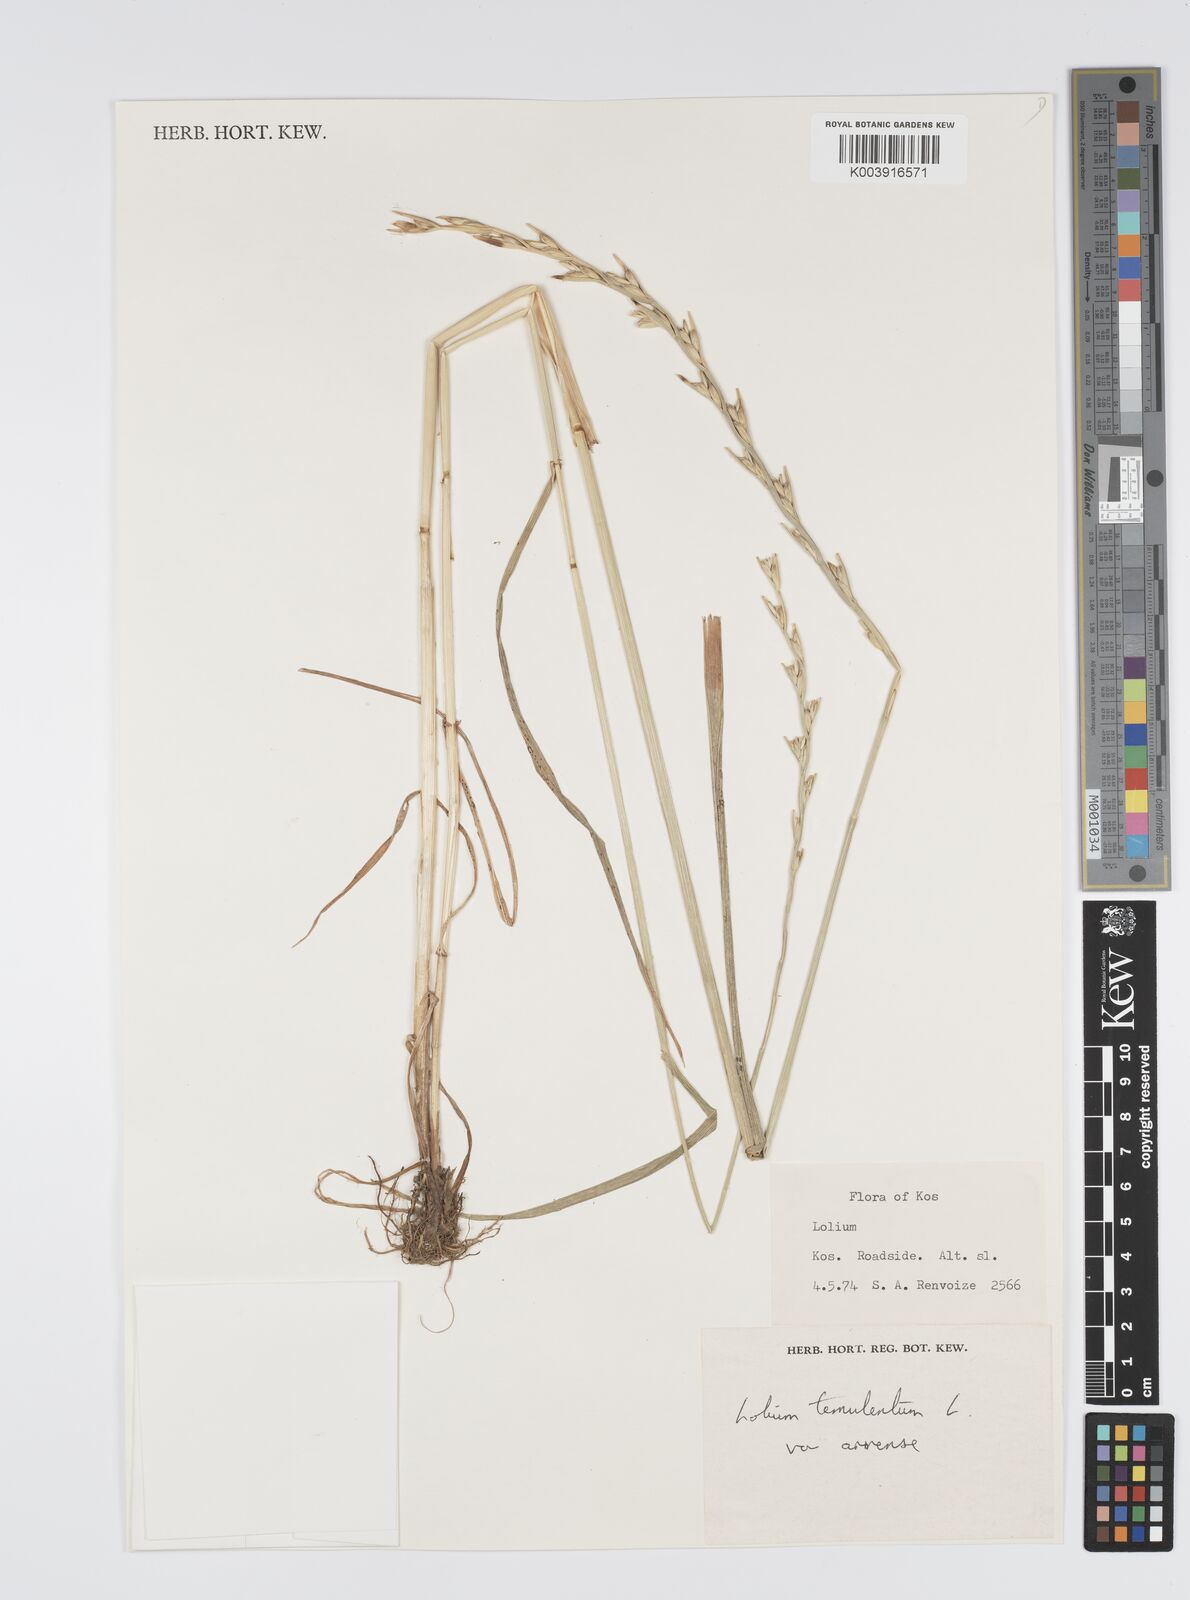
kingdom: Plantae
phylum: Tracheophyta
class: Liliopsida
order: Poales
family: Poaceae
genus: Lolium
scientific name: Lolium temulentum
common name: Darnel
